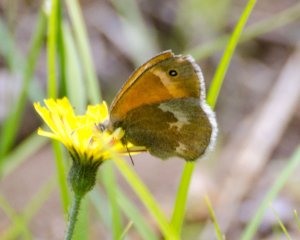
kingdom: Animalia
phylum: Arthropoda
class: Insecta
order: Lepidoptera
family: Nymphalidae
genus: Coenonympha
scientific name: Coenonympha tullia
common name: Large Heath
